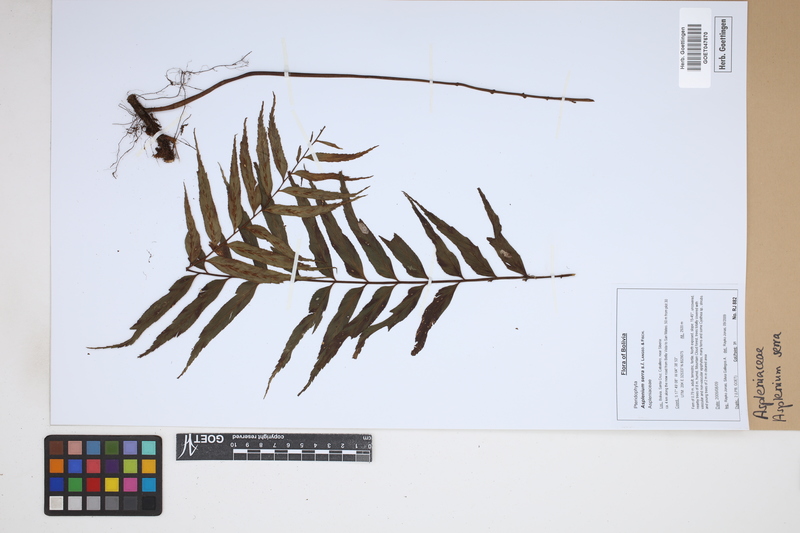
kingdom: Plantae
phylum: Tracheophyta
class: Polypodiopsida
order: Polypodiales
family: Aspleniaceae
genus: Asplenium
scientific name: Asplenium serra
